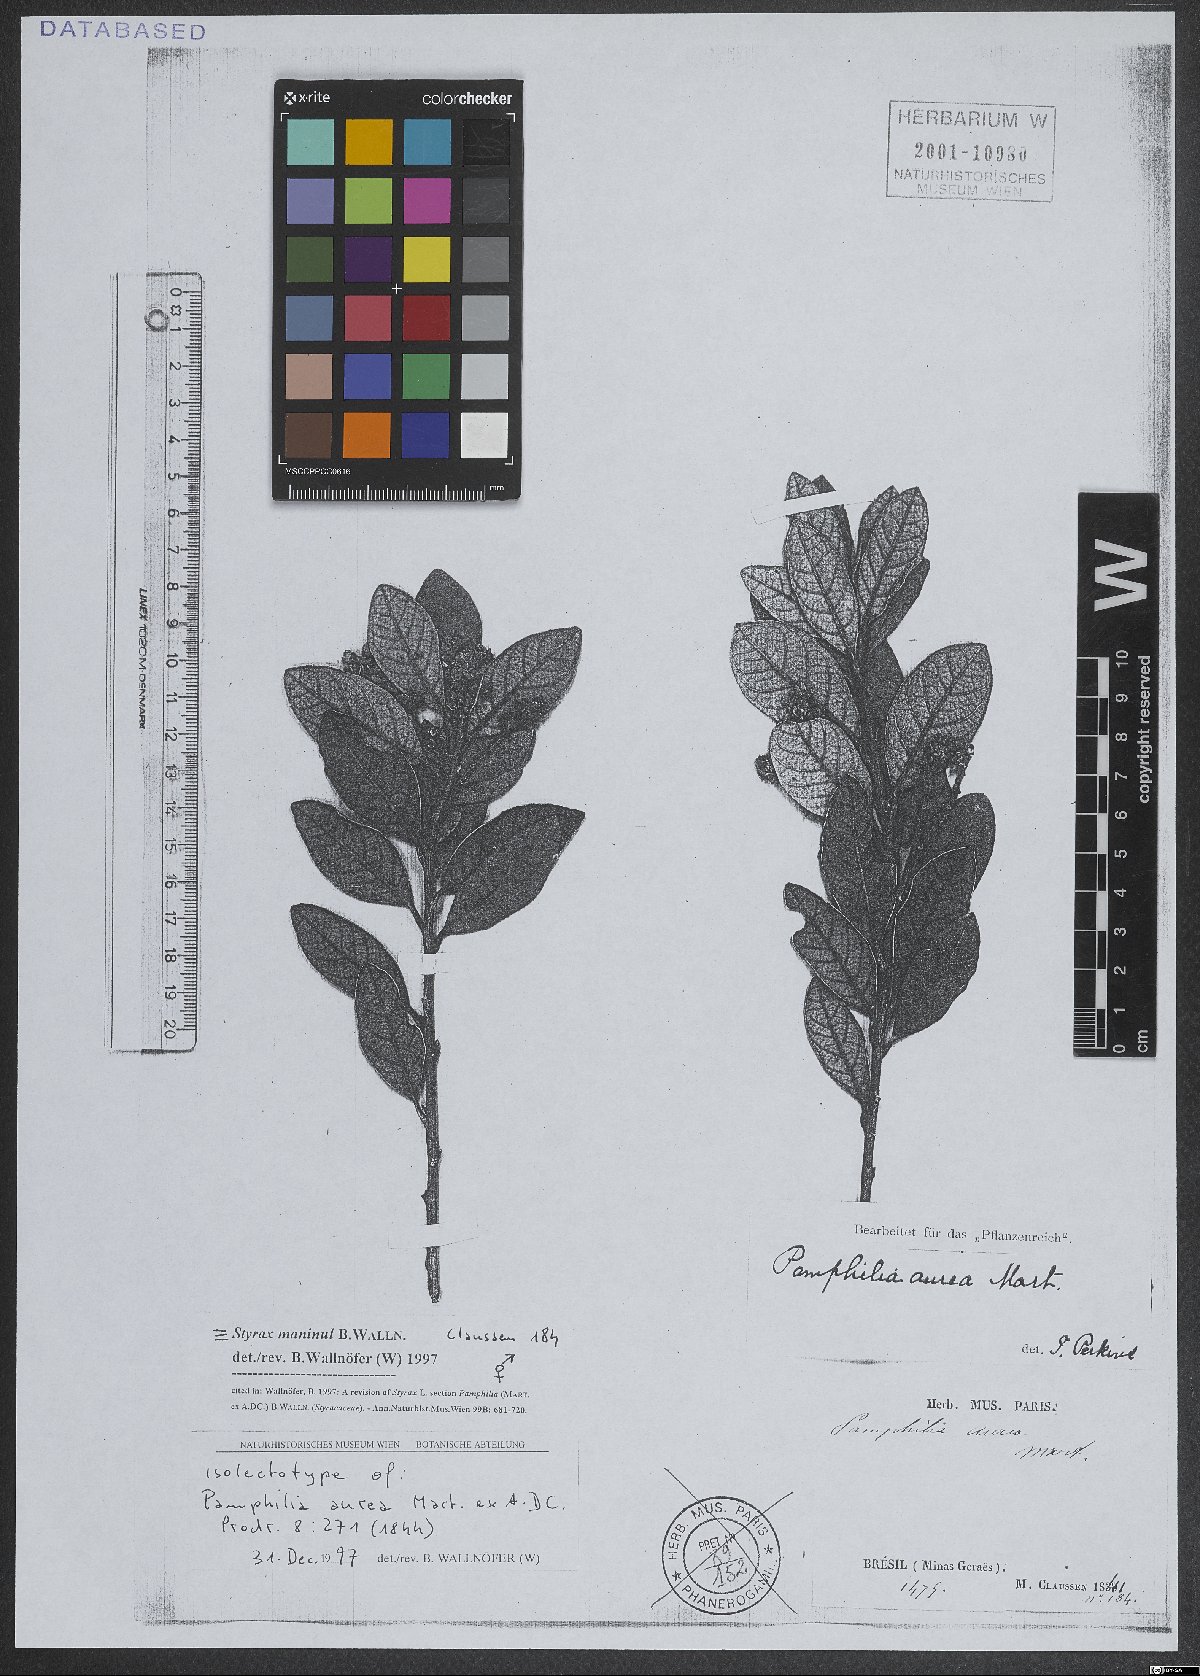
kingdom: Plantae
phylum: Tracheophyta
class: Magnoliopsida
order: Ericales
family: Styracaceae
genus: Styrax
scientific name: Styrax maninul
